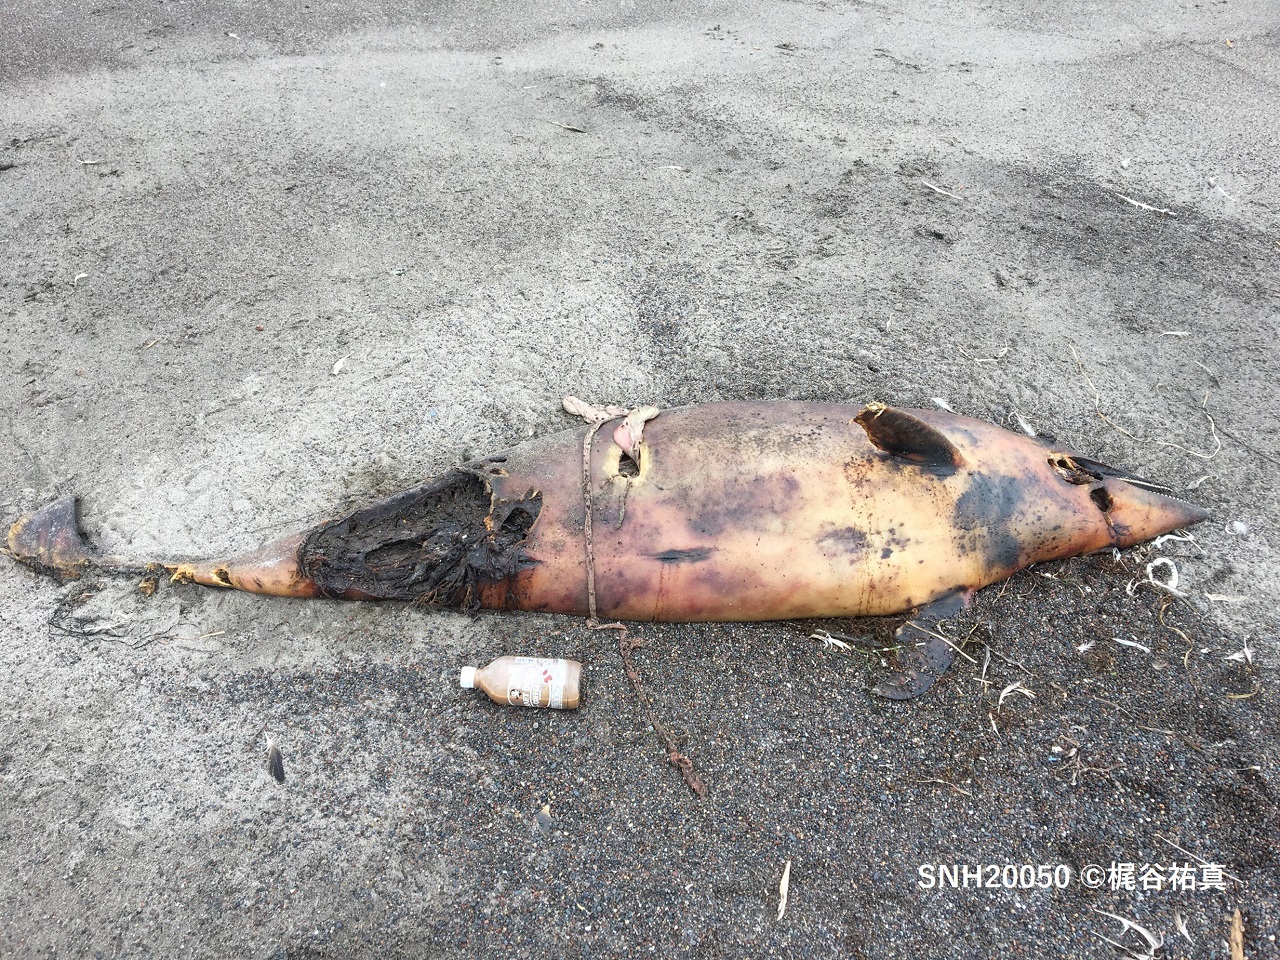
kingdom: Animalia
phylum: Chordata
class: Mammalia
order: Cetacea
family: Delphinidae
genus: Lagenorhynchus
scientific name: Lagenorhynchus obliquidens
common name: Pacific white-sided dolphin
